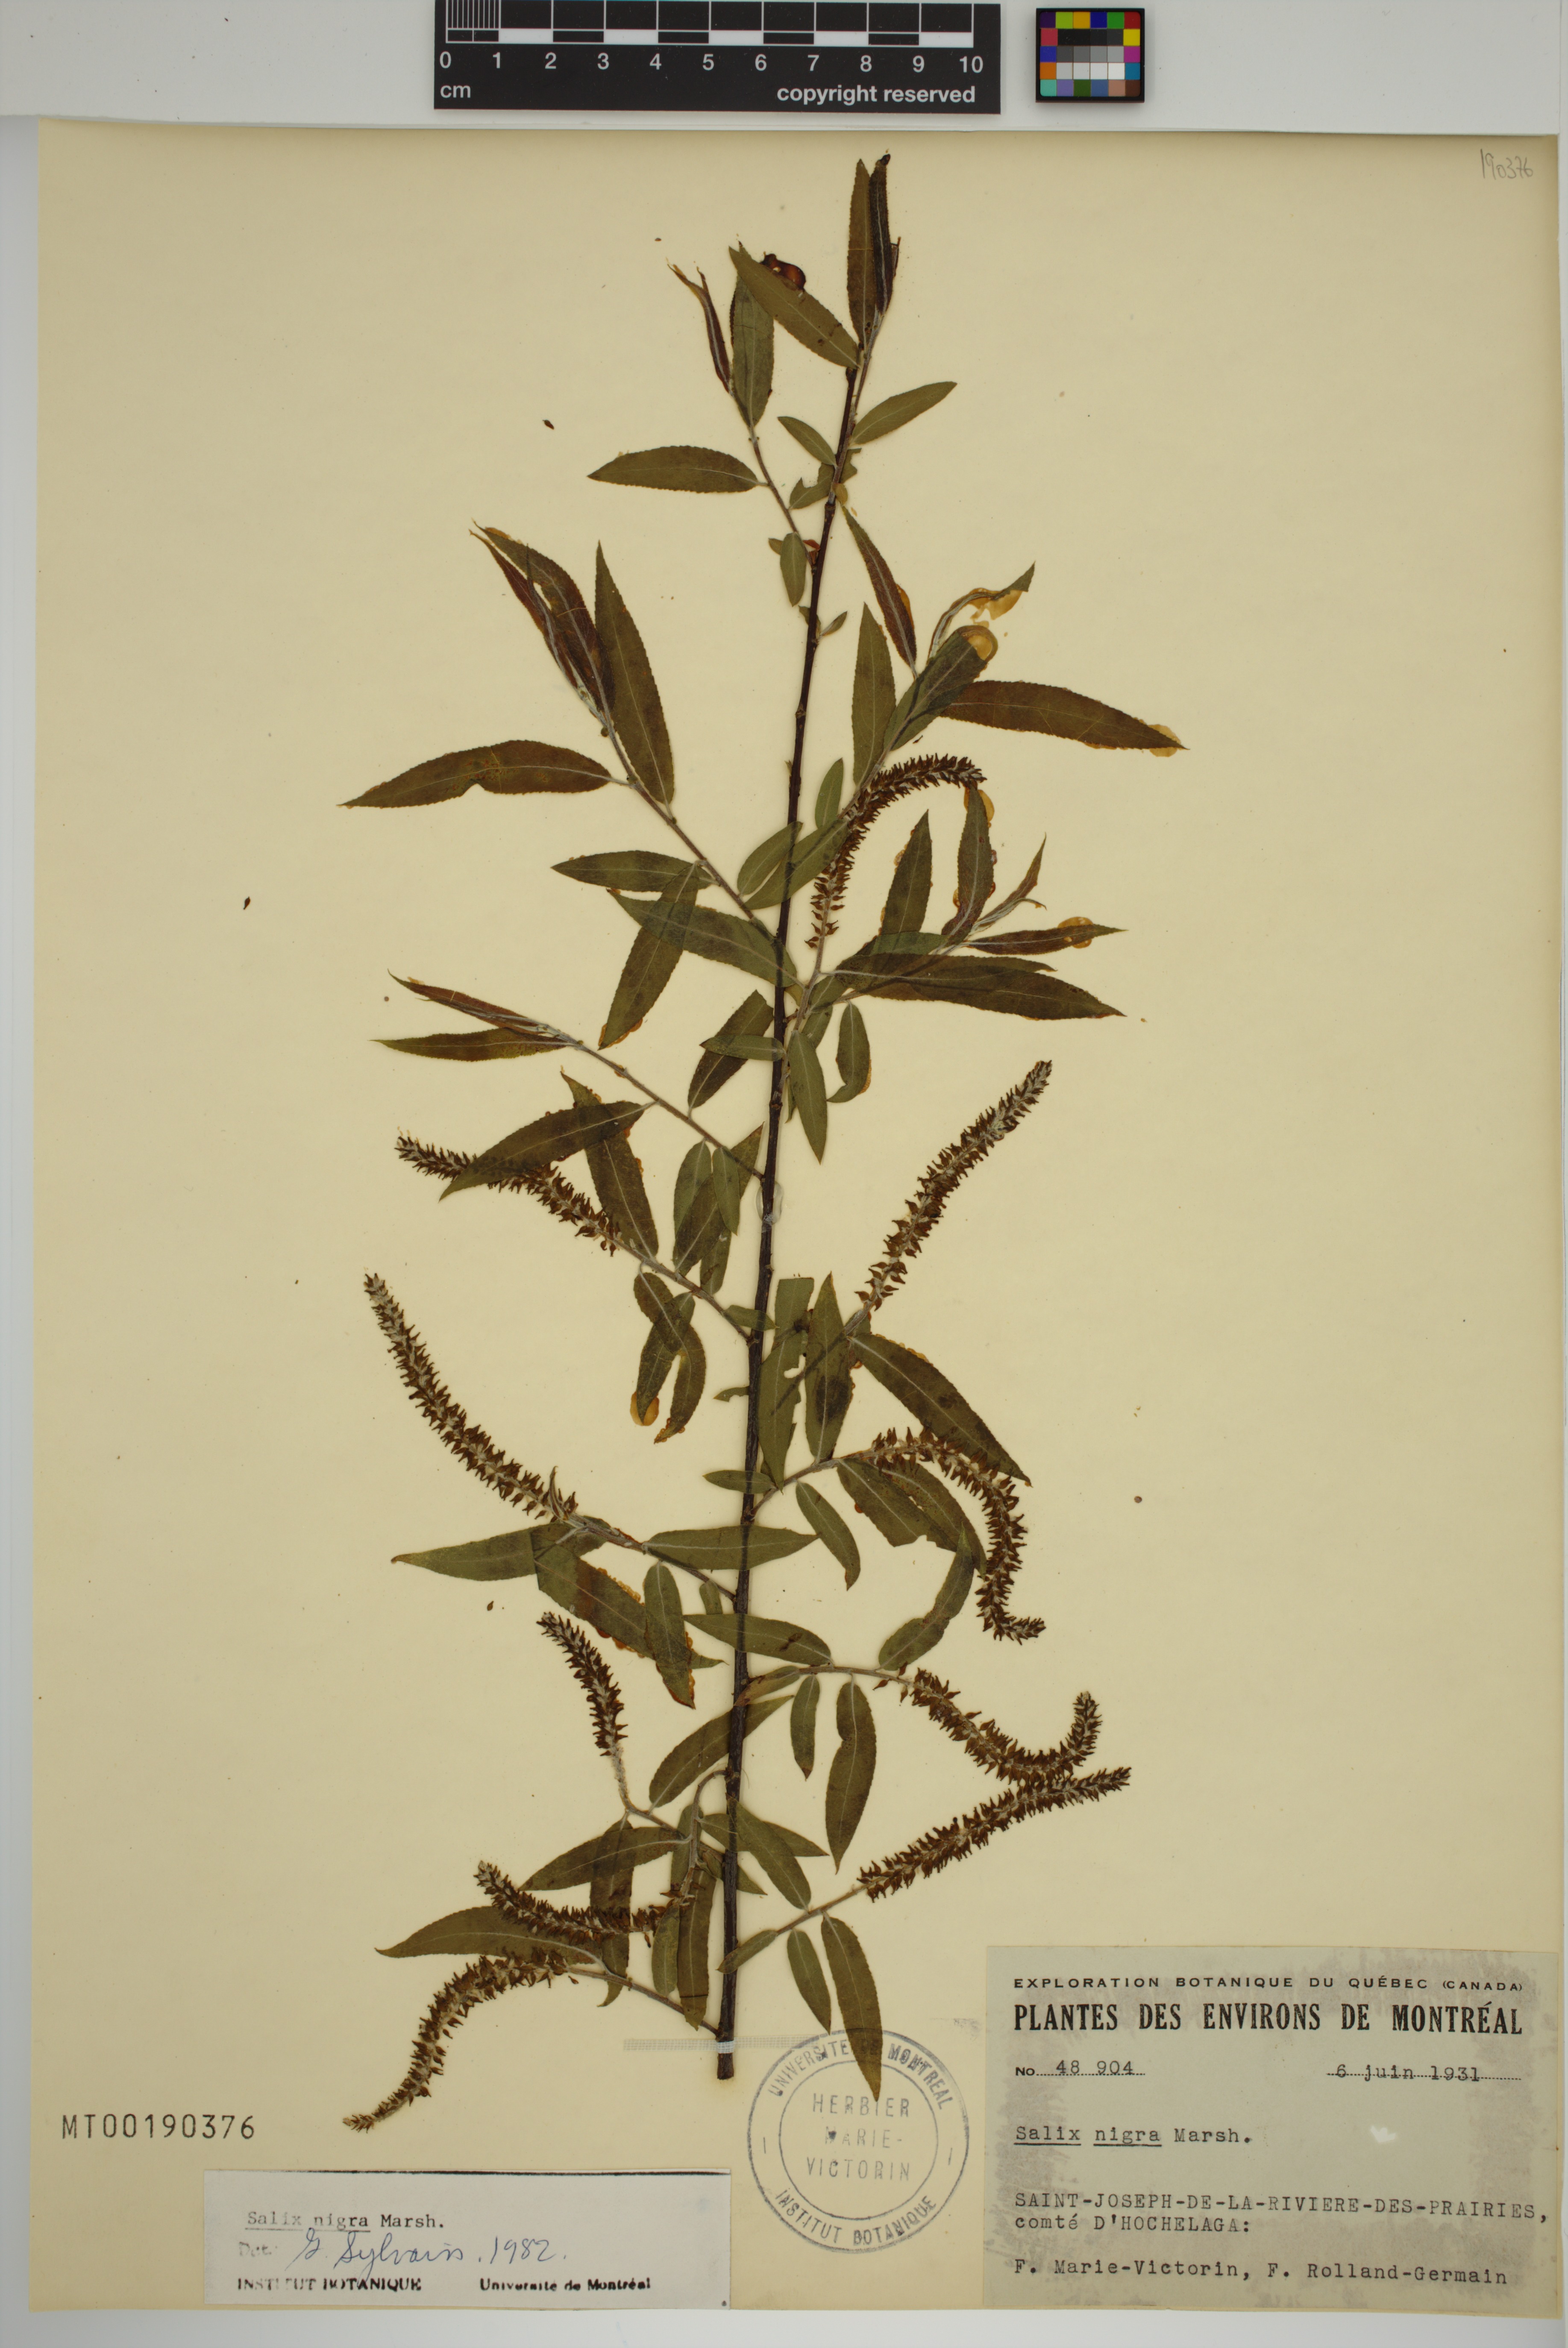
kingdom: Plantae
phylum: Tracheophyta
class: Magnoliopsida
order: Malpighiales
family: Salicaceae
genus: Salix
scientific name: Salix nigra
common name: Black willow
